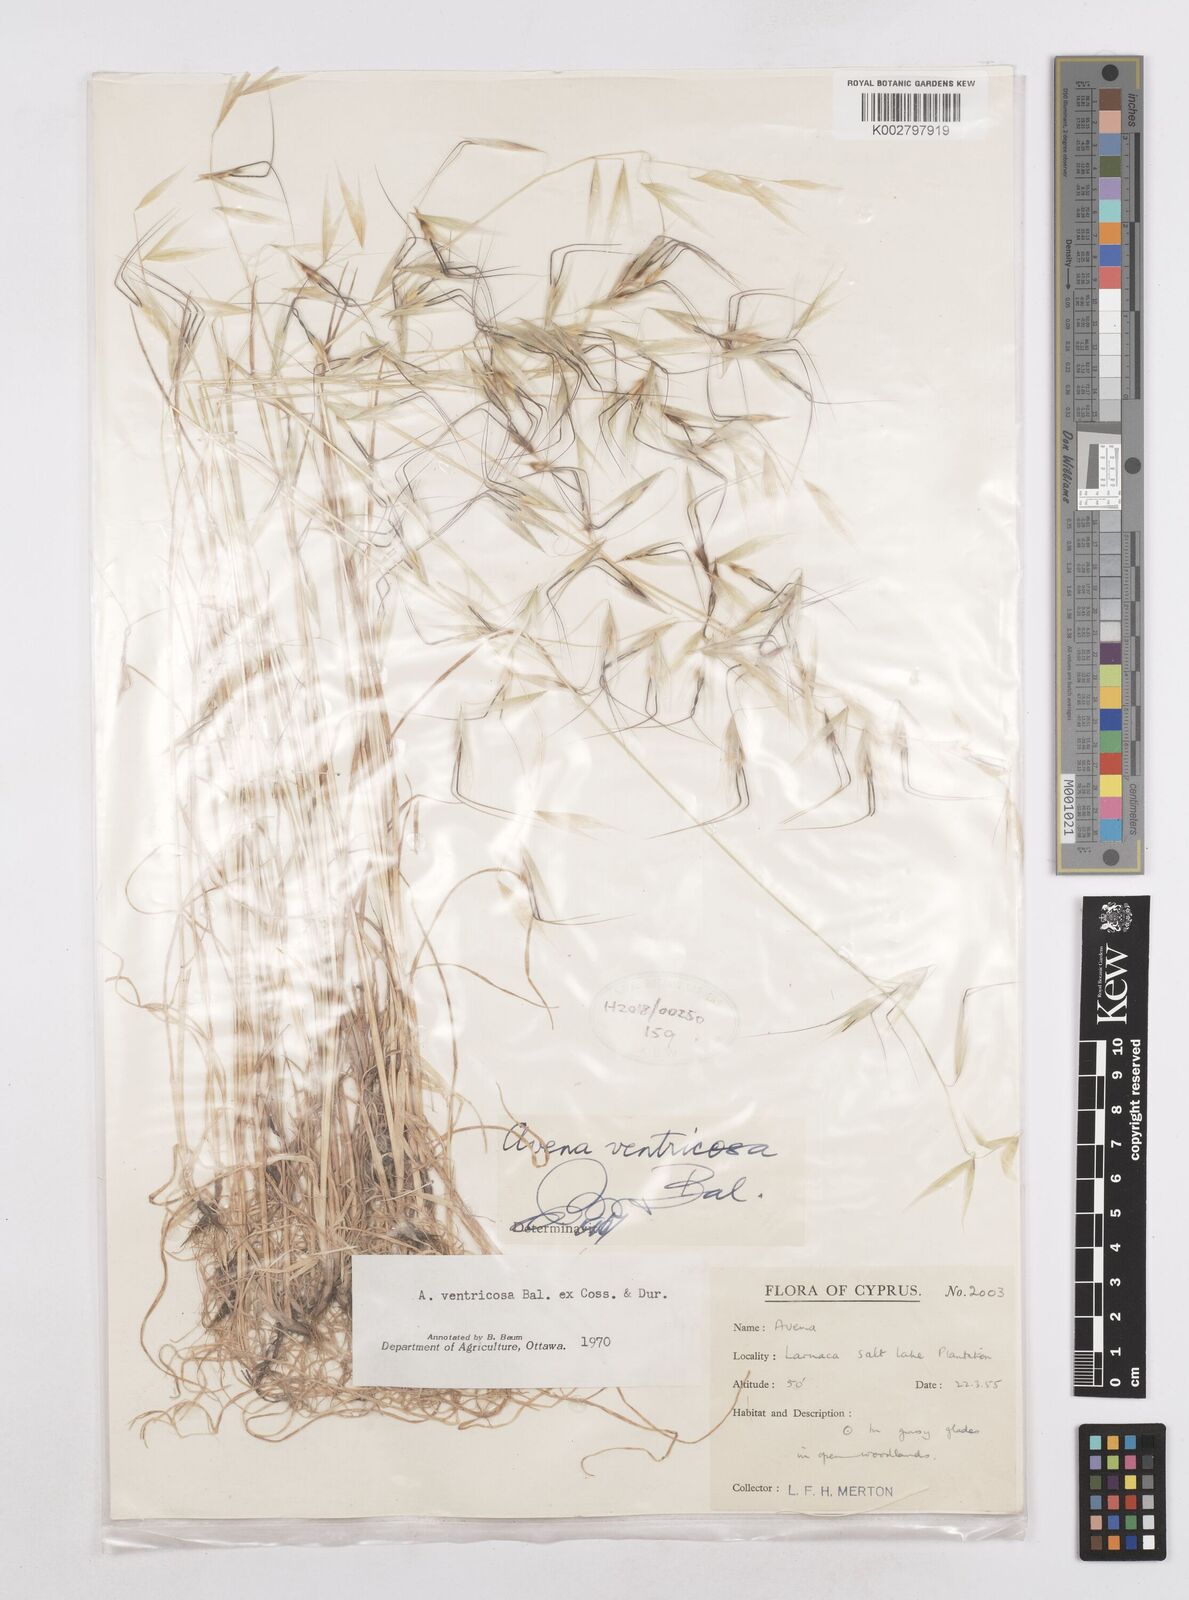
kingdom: Plantae
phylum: Tracheophyta
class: Liliopsida
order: Poales
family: Poaceae
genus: Avena
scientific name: Avena ventricosa
